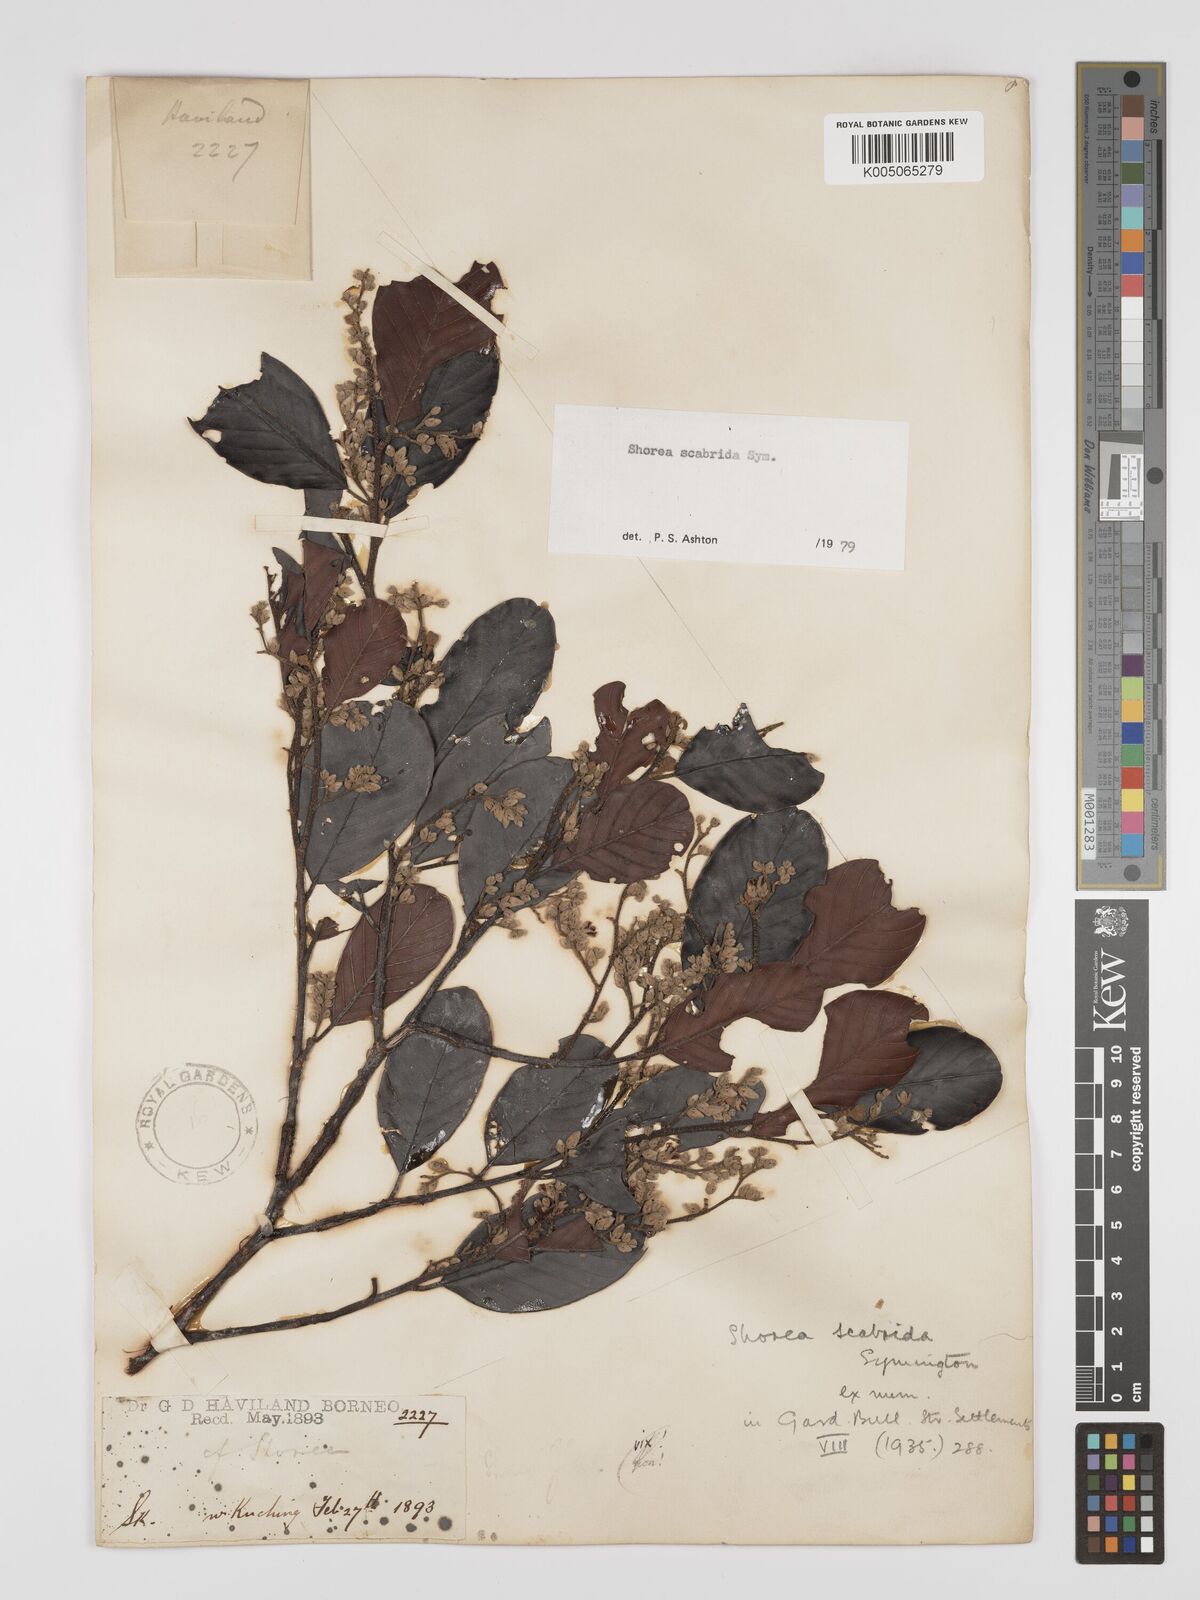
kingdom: Plantae
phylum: Tracheophyta
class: Magnoliopsida
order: Malvales
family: Dipterocarpaceae
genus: Shorea
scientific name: Shorea scabrida
